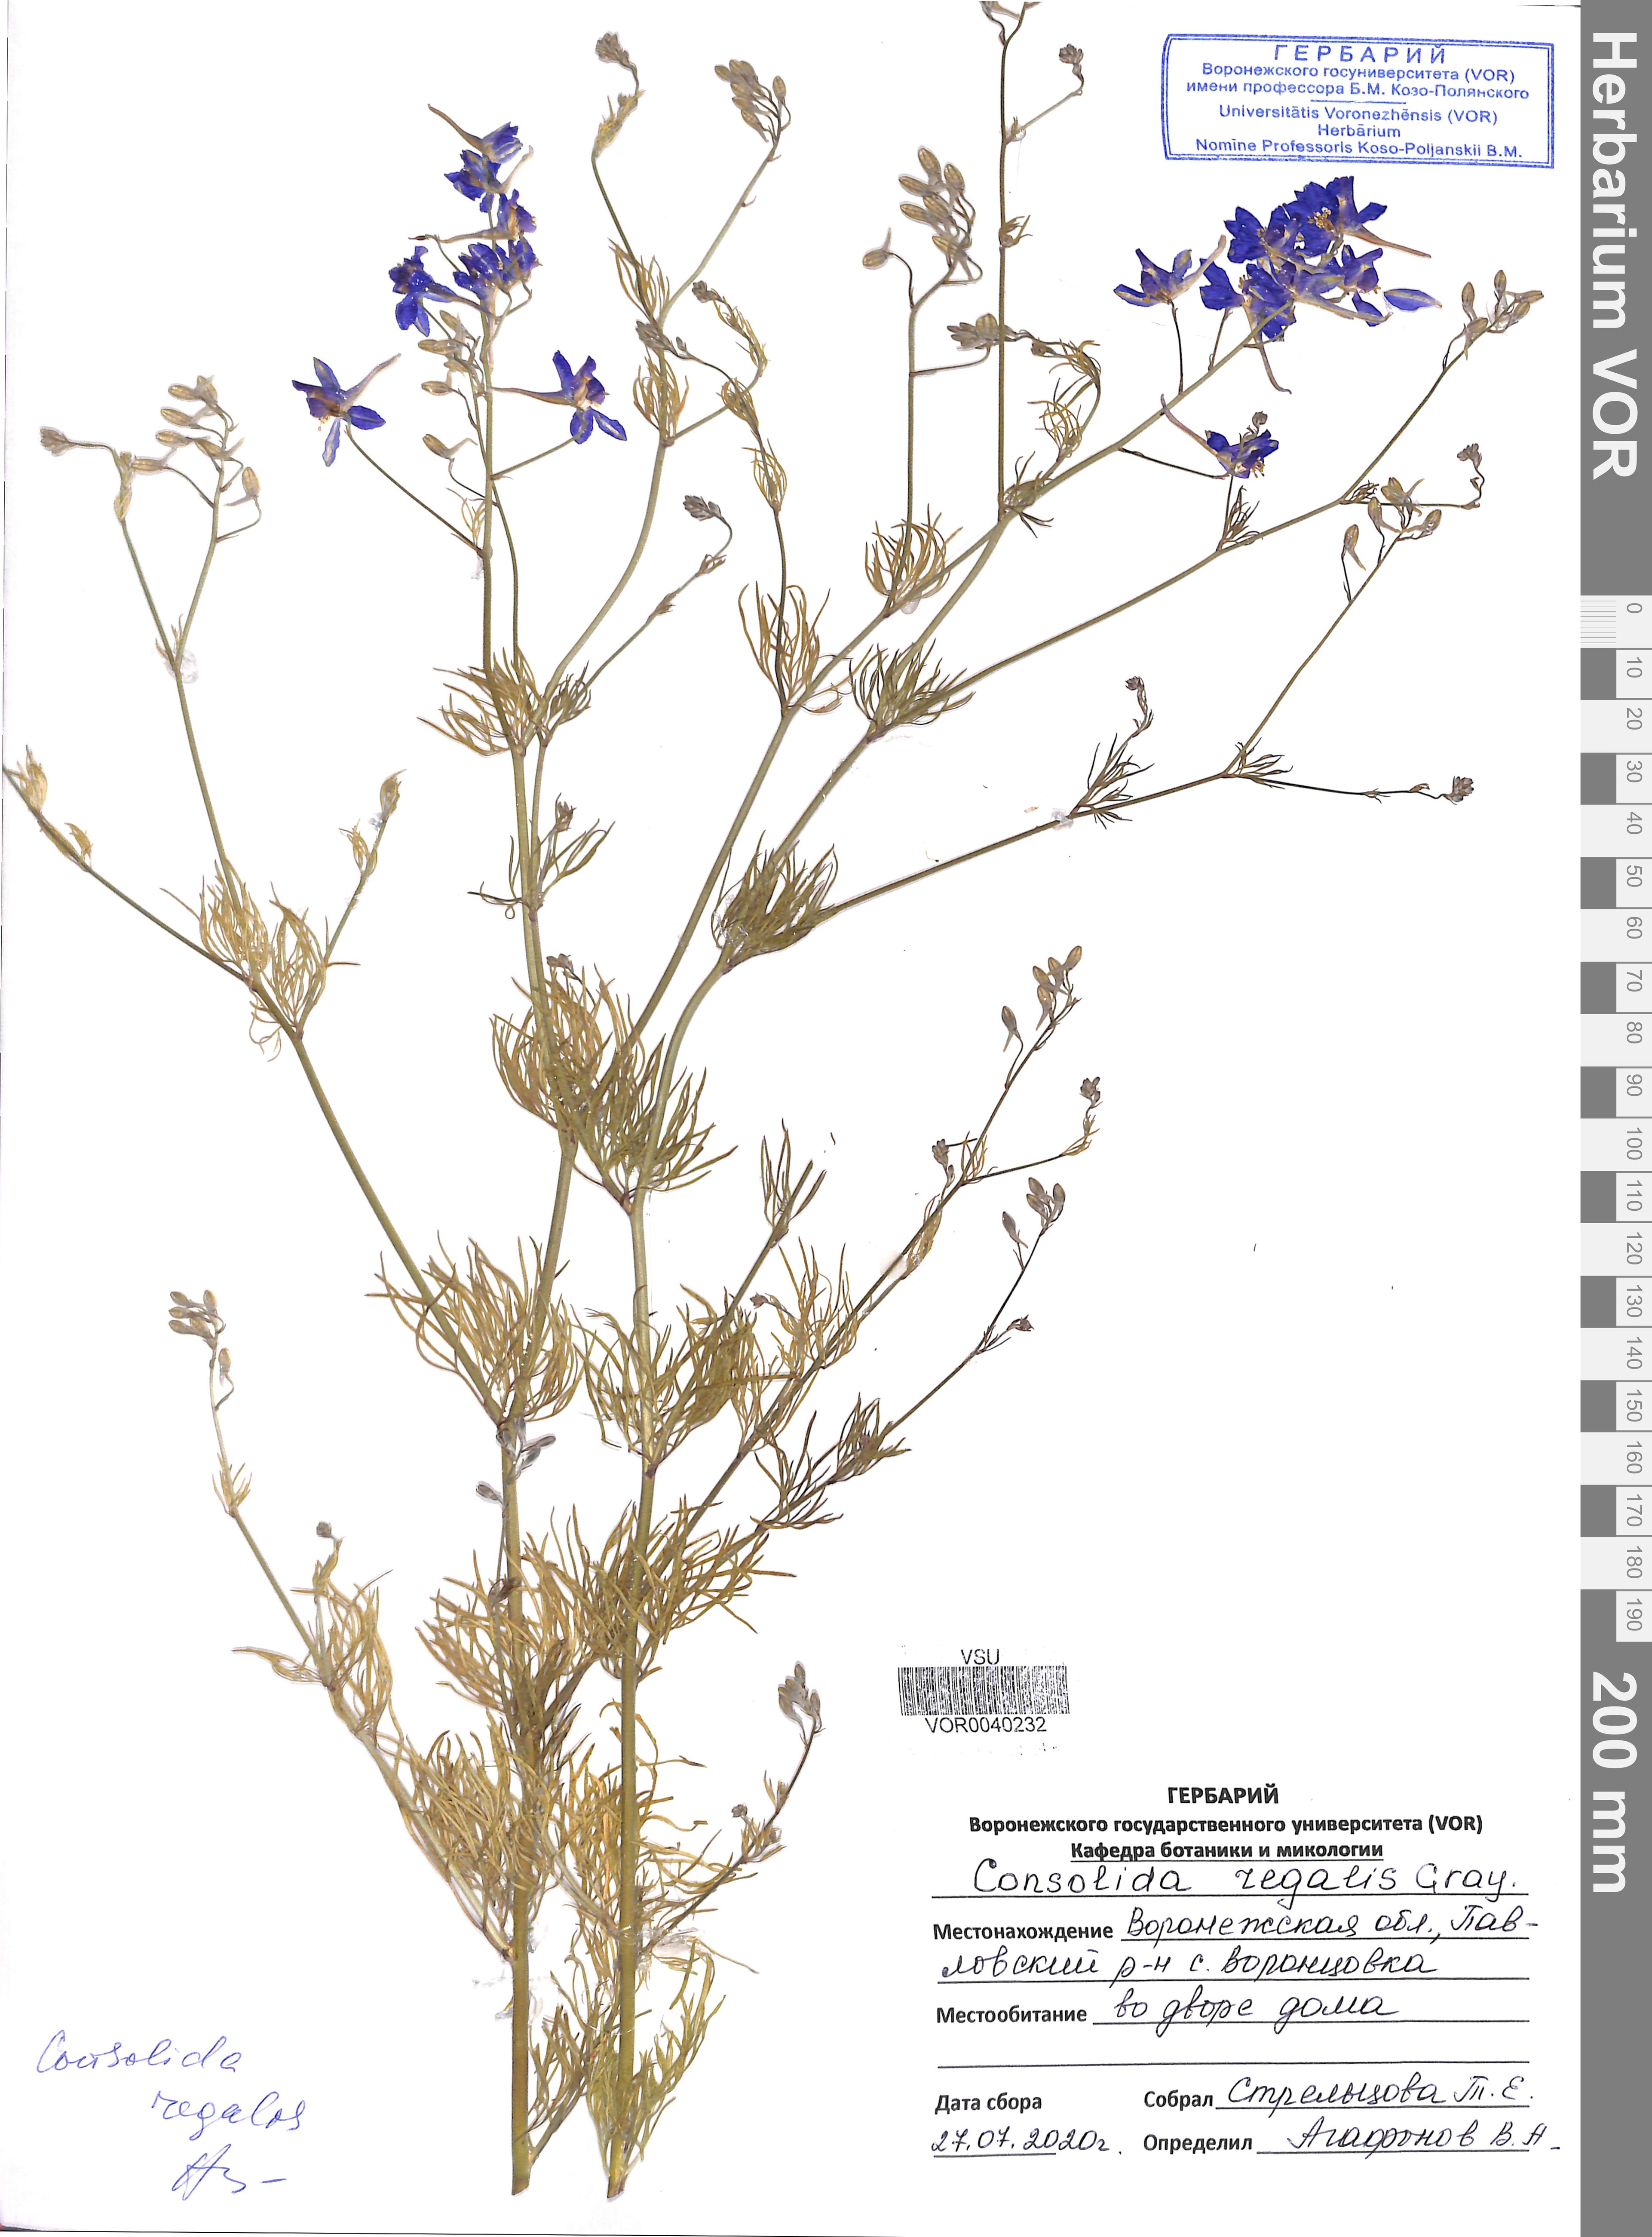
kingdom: Plantae
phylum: Tracheophyta
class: Magnoliopsida
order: Ranunculales
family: Ranunculaceae
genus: Delphinium
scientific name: Delphinium consolida
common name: Branching larkspur
